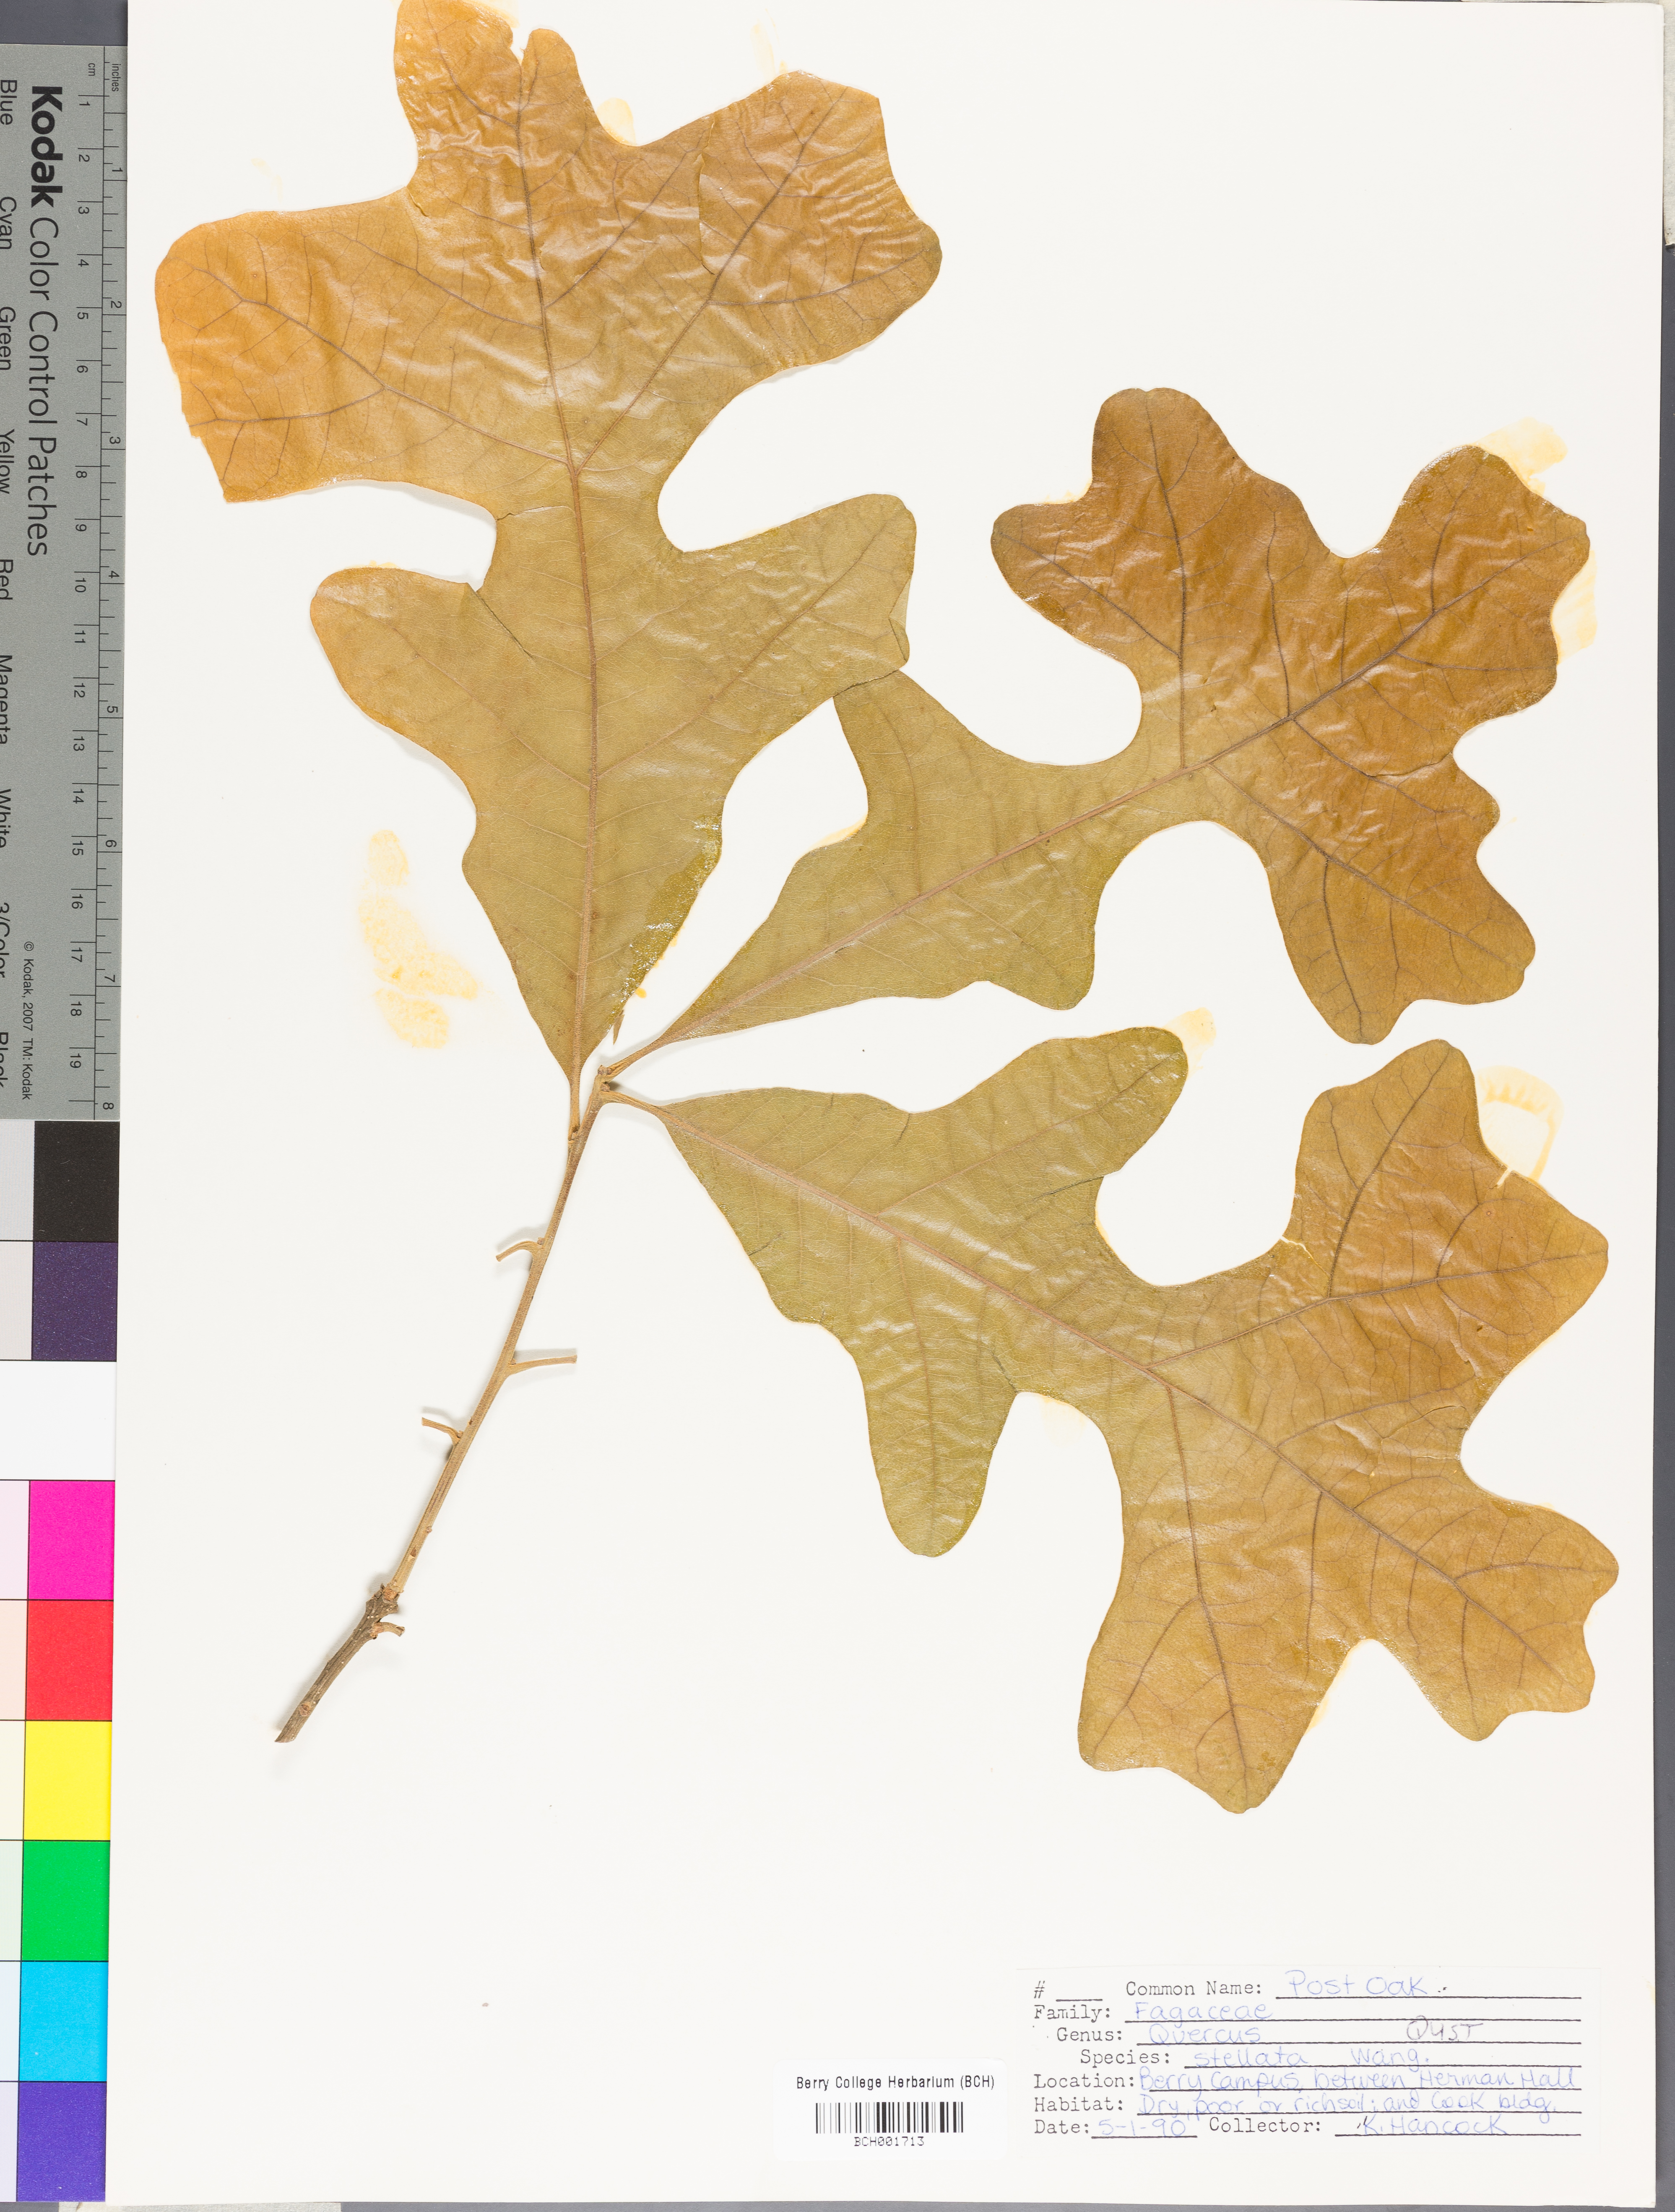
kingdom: Plantae
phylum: Tracheophyta
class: Magnoliopsida
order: Fagales
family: Fagaceae
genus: Quercus
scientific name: Quercus stellata
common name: Post oak
